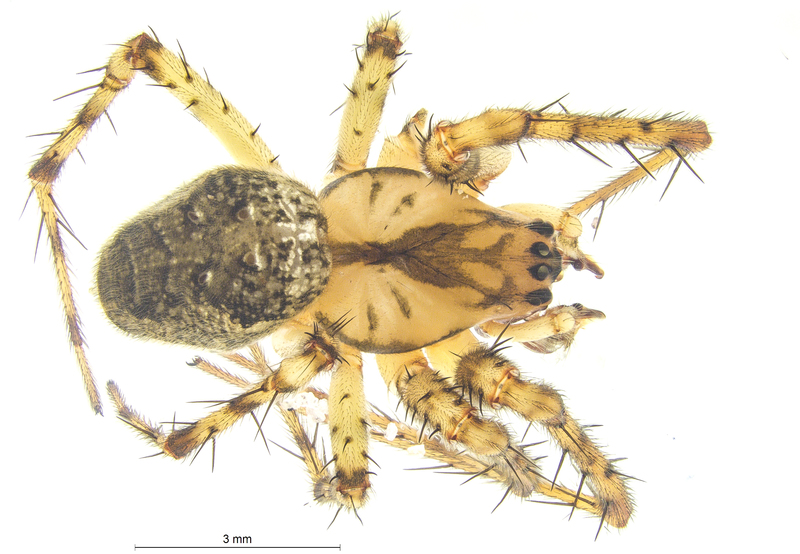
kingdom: Animalia
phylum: Arthropoda
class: Arachnida
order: Araneae
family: Tetragnathidae
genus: Metellina
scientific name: Metellina merianae
